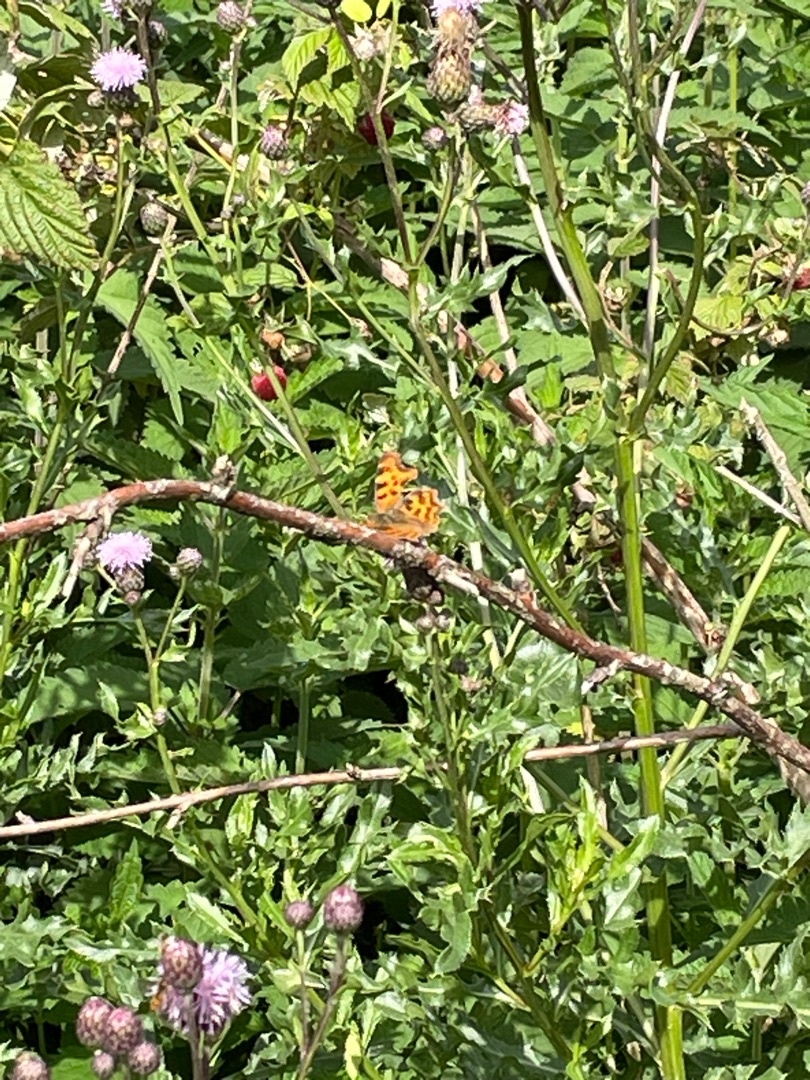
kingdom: Animalia
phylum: Arthropoda
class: Insecta
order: Lepidoptera
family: Nymphalidae
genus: Polygonia
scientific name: Polygonia c-album
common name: Det hvide C
